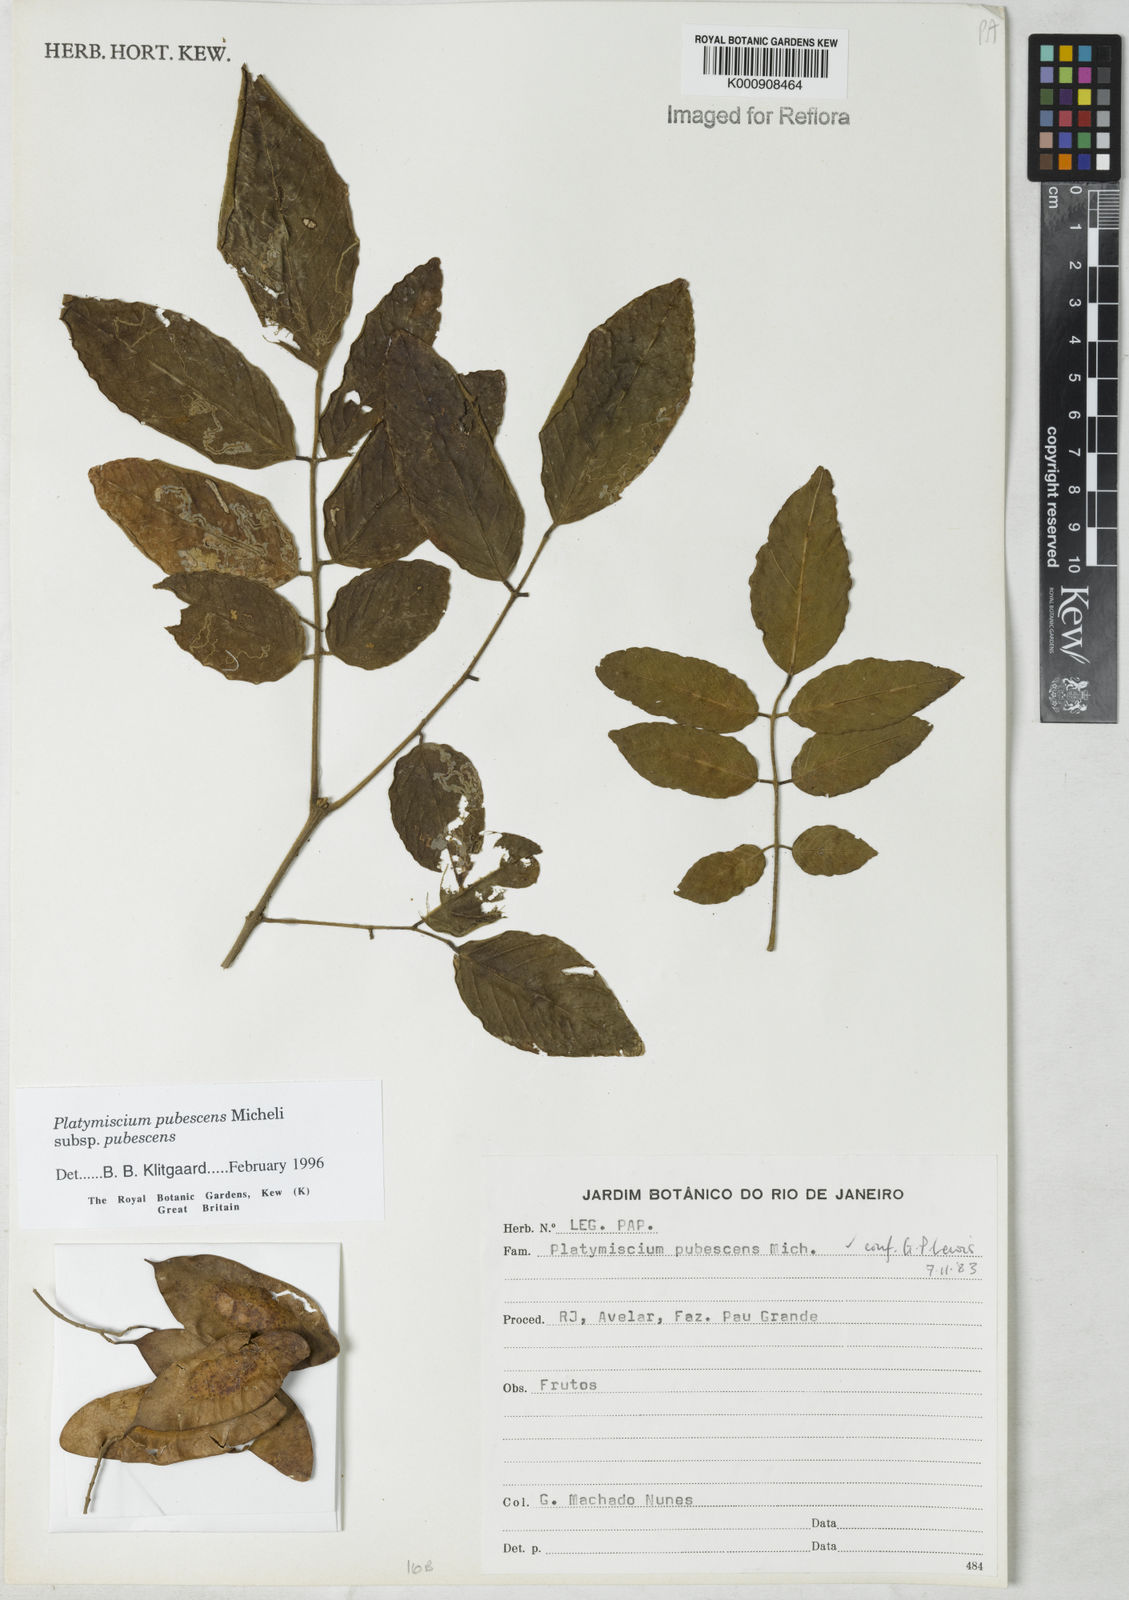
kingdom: Plantae
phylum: Tracheophyta
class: Magnoliopsida
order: Fabales
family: Fabaceae
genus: Platymiscium
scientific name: Platymiscium pubescens
